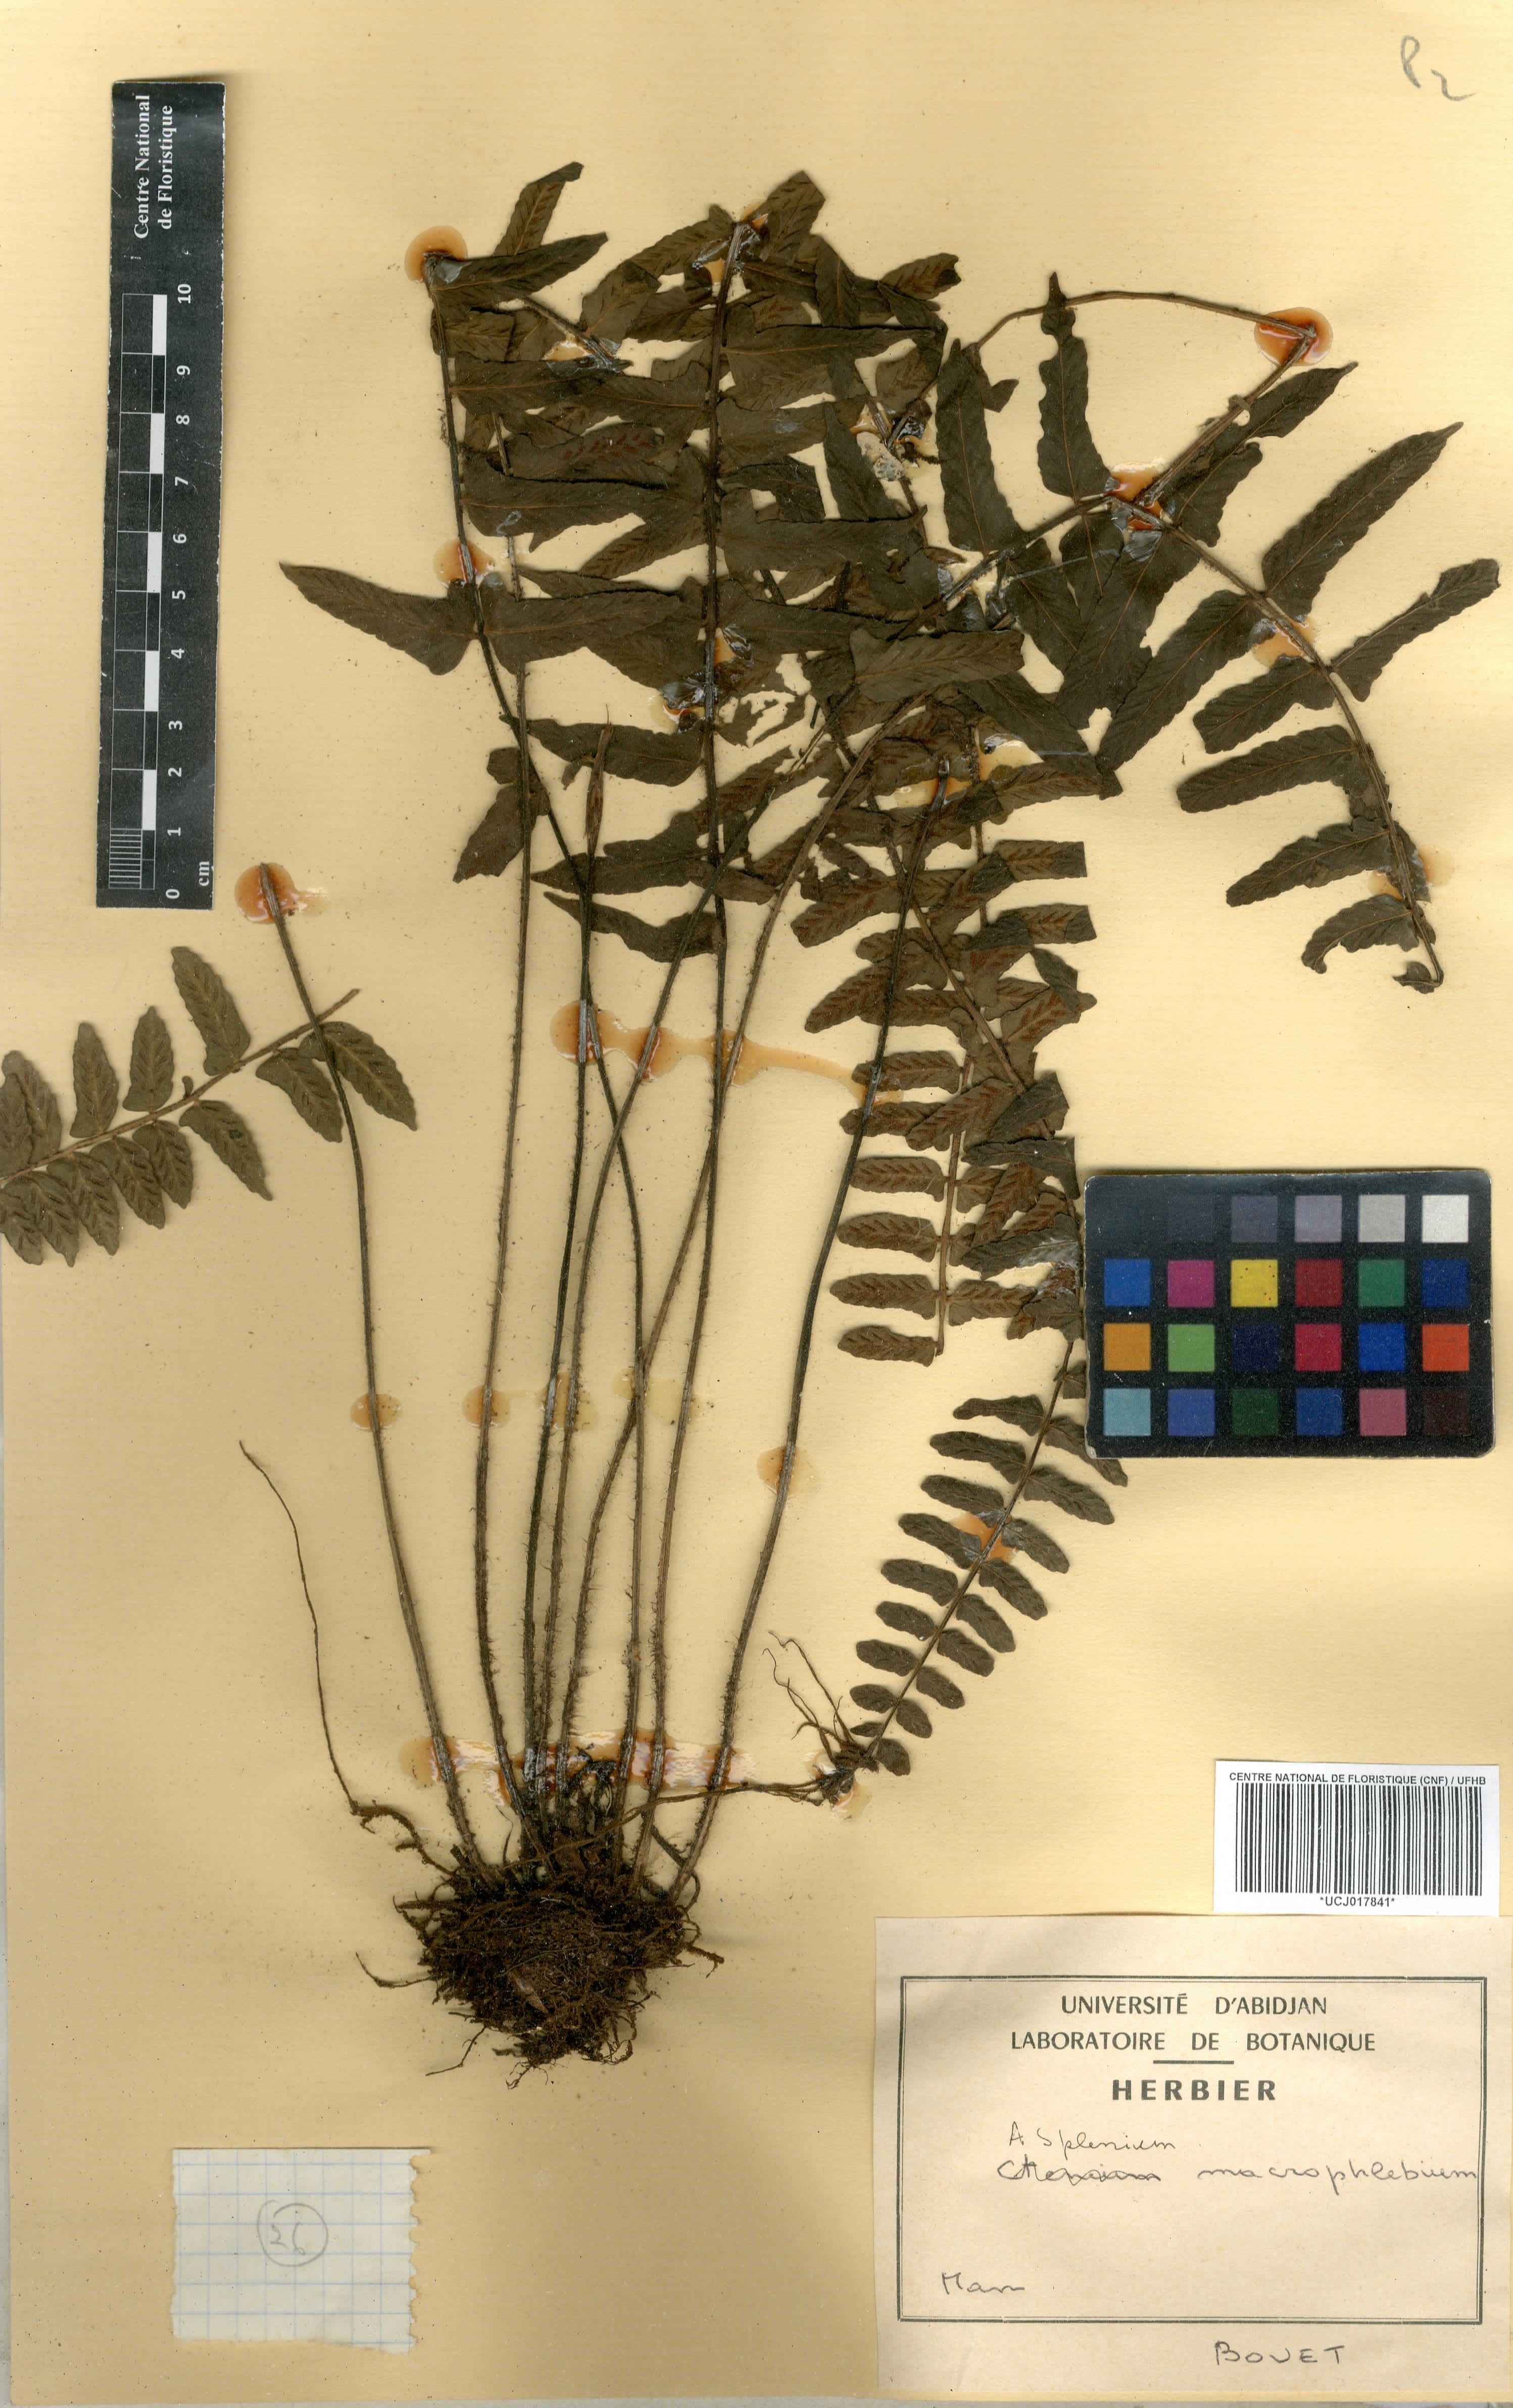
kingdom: Plantae
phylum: Tracheophyta
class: Polypodiopsida
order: Polypodiales
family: Aspleniaceae
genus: Asplenium
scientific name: Asplenium macrophlebium
